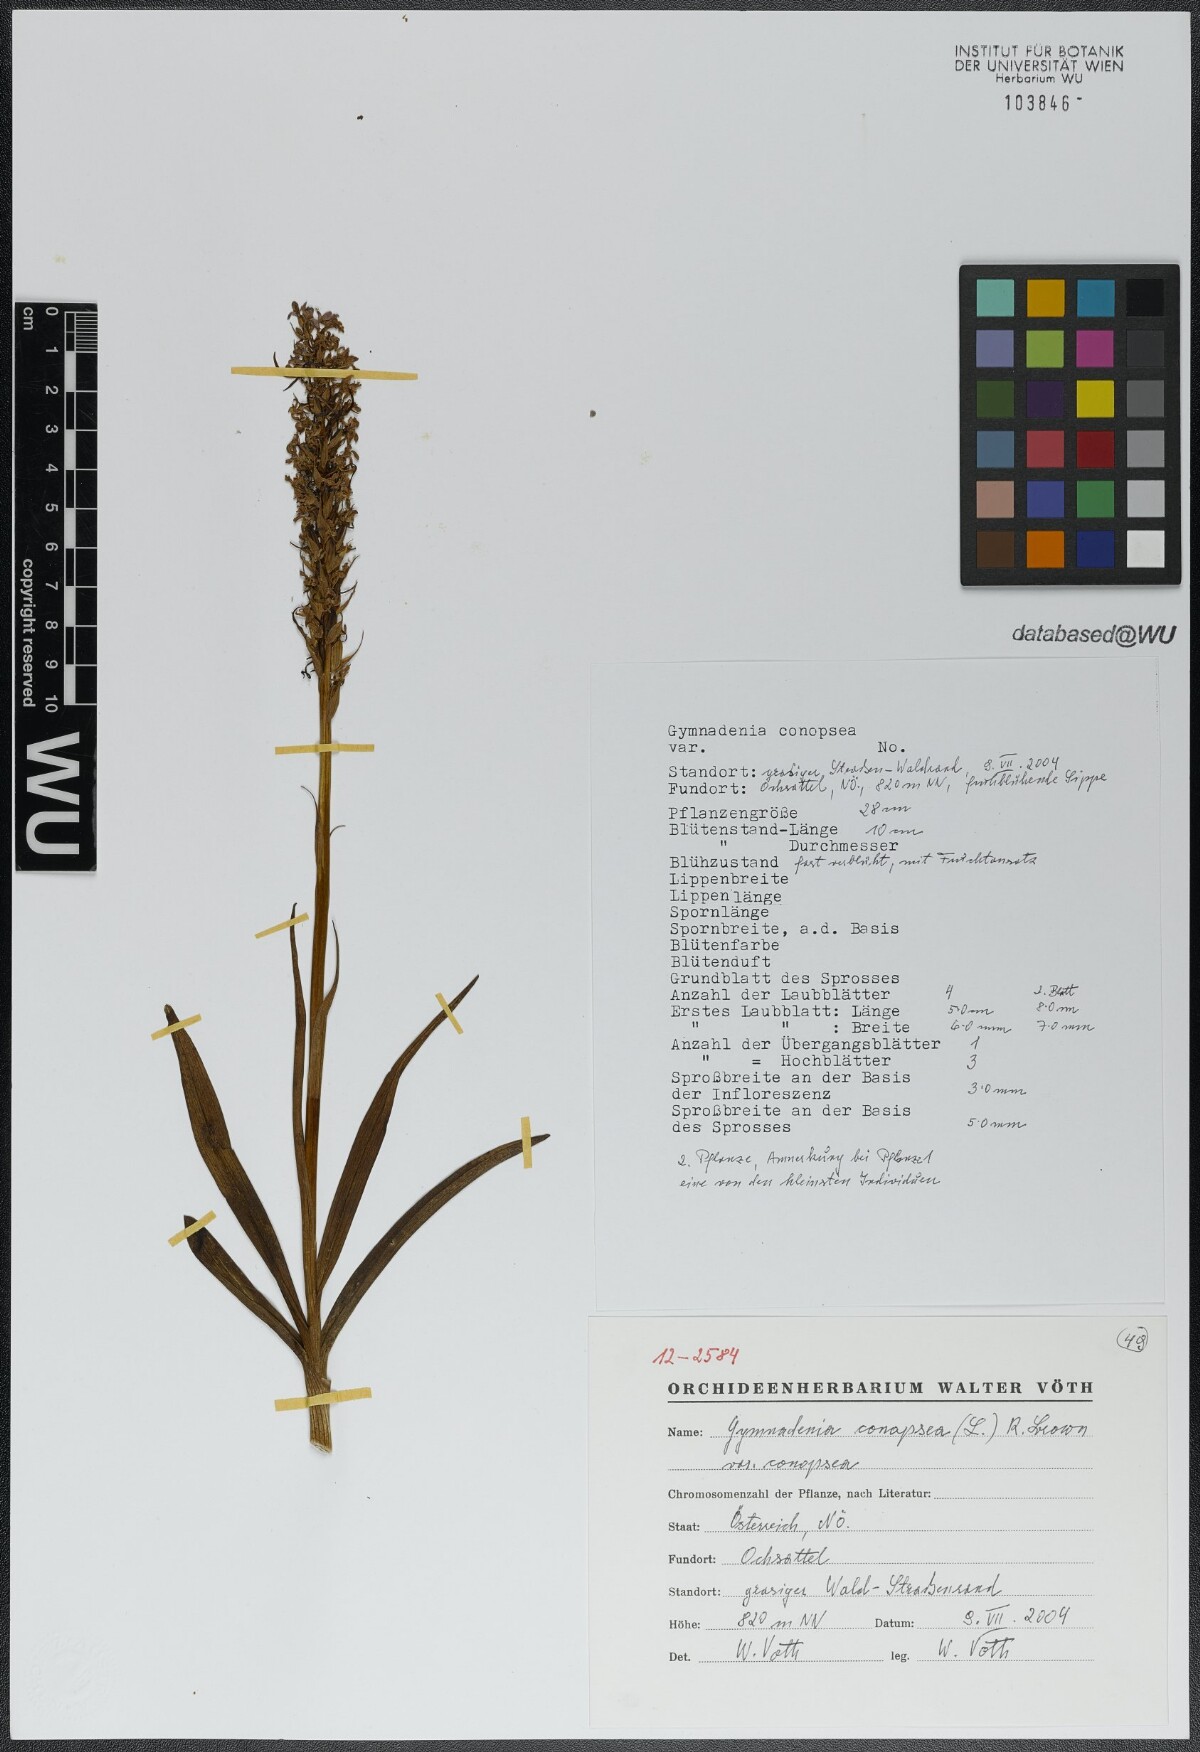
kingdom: Plantae
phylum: Tracheophyta
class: Liliopsida
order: Asparagales
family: Orchidaceae
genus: Gymnadenia
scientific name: Gymnadenia conopsea
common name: Fragrant orchid
